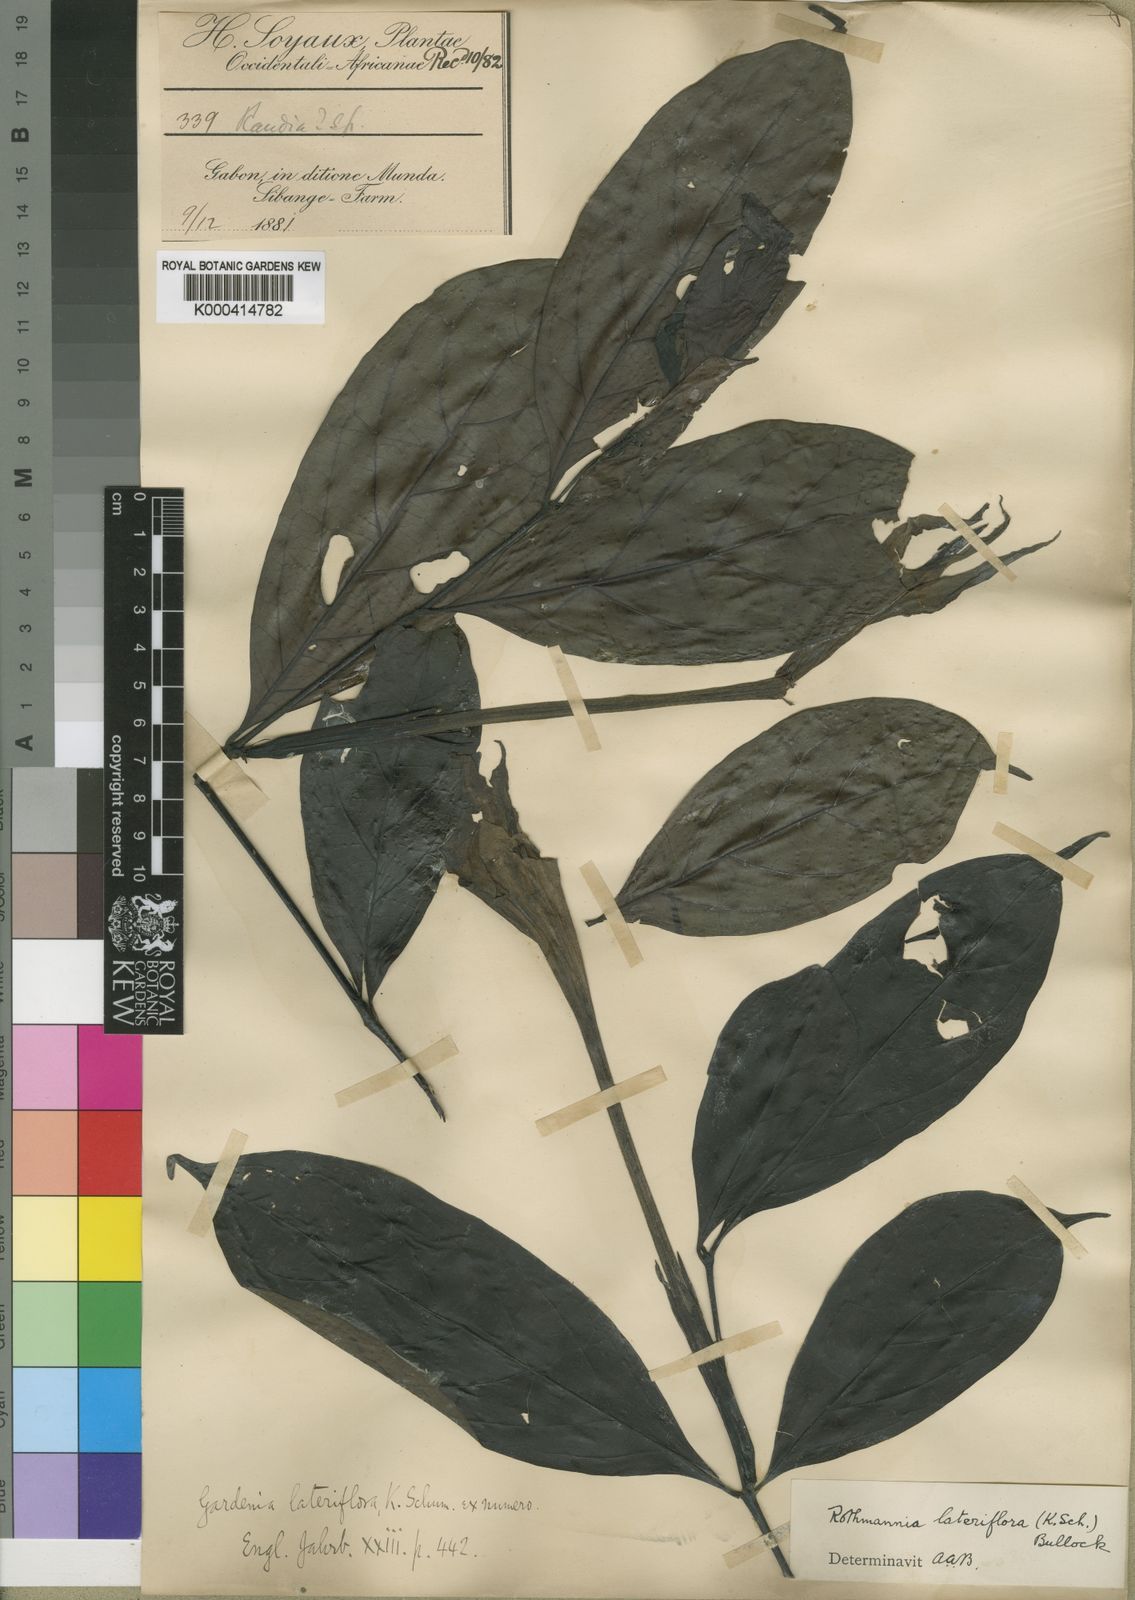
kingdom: Plantae
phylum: Tracheophyta
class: Magnoliopsida
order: Gentianales
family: Rubiaceae
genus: Rothmannia
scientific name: Rothmannia
